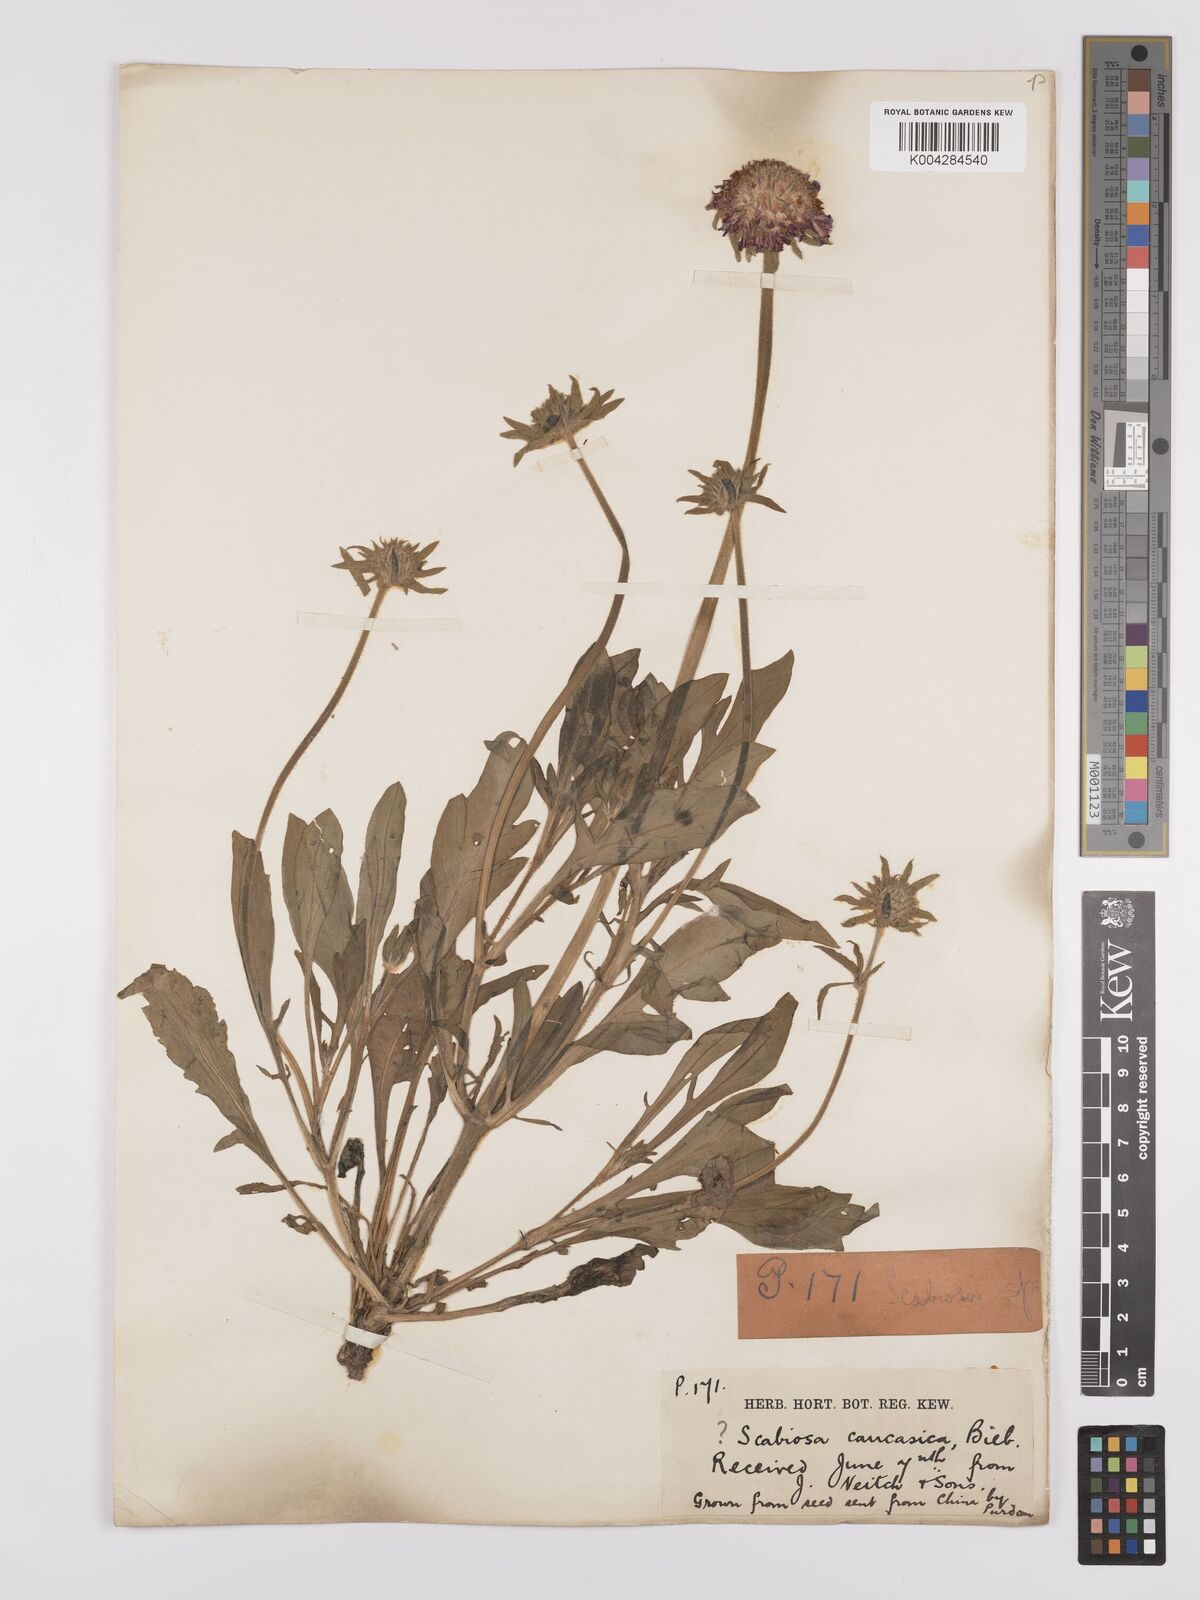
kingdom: Plantae
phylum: Tracheophyta
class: Magnoliopsida
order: Dipsacales
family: Caprifoliaceae
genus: Scabiosa
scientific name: Scabiosa
